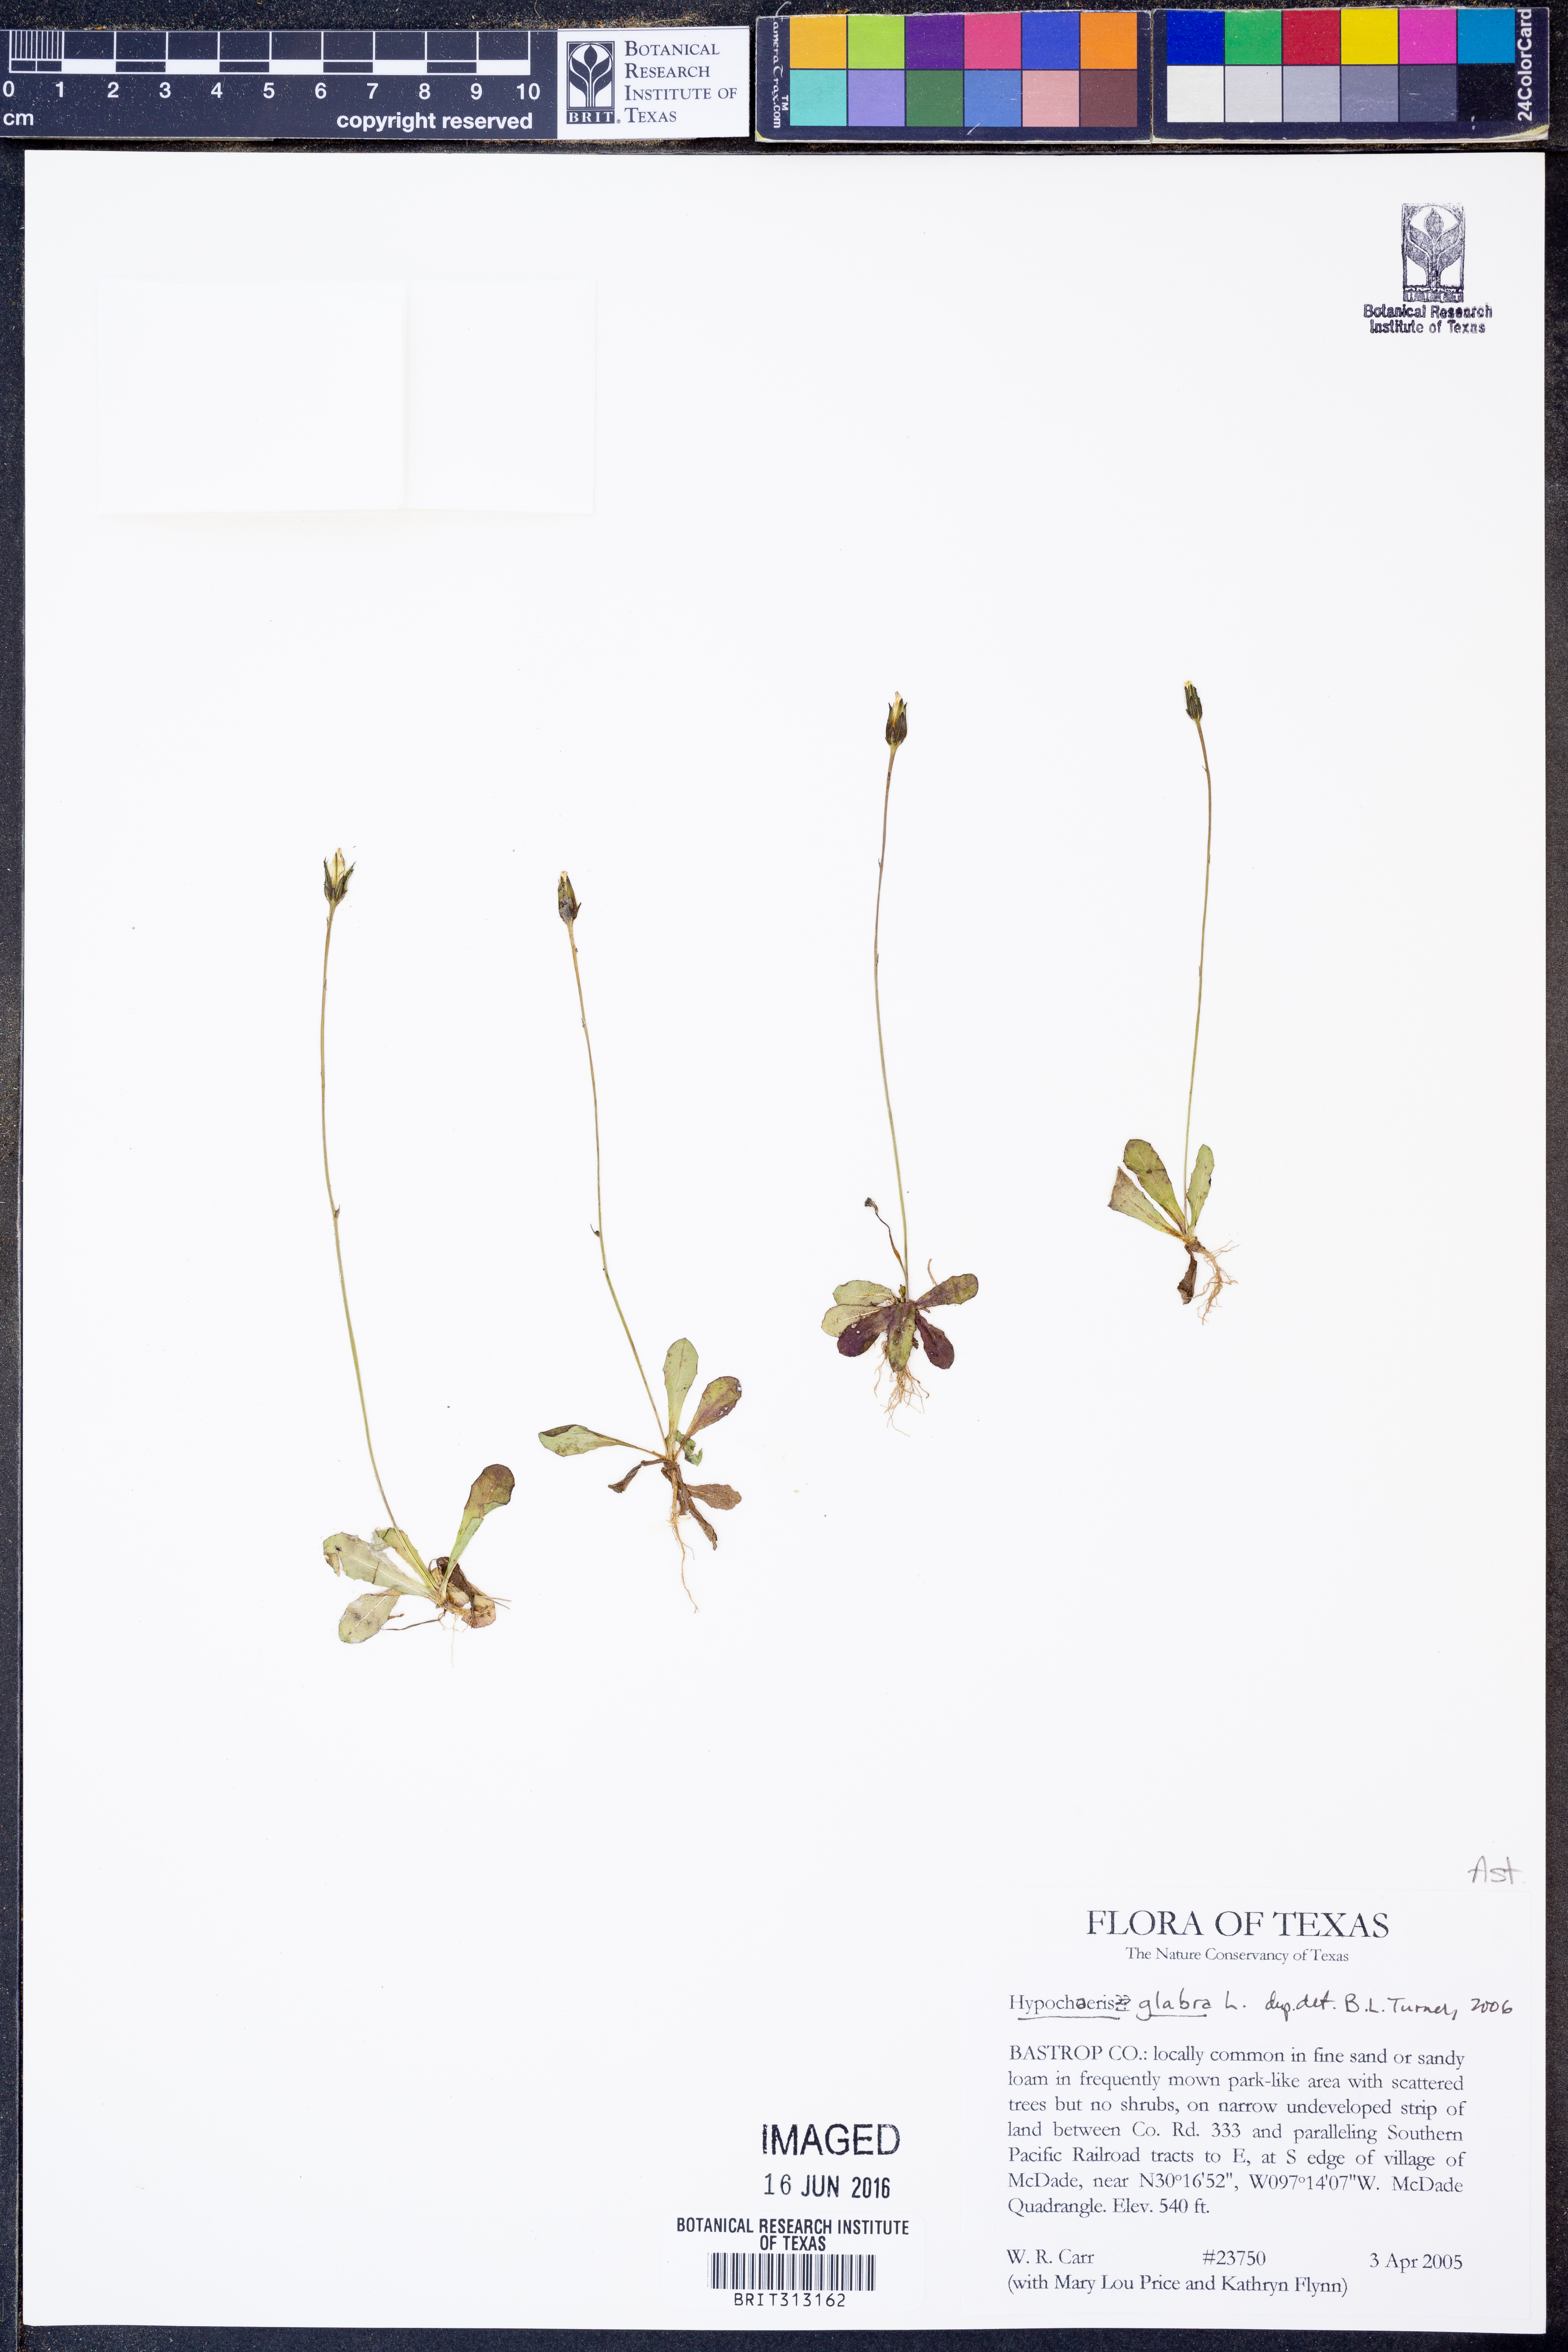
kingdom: Plantae
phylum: Tracheophyta
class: Magnoliopsida
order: Asterales
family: Asteraceae
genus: Hypochaeris
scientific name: Hypochaeris glabra
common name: Smooth catsear
